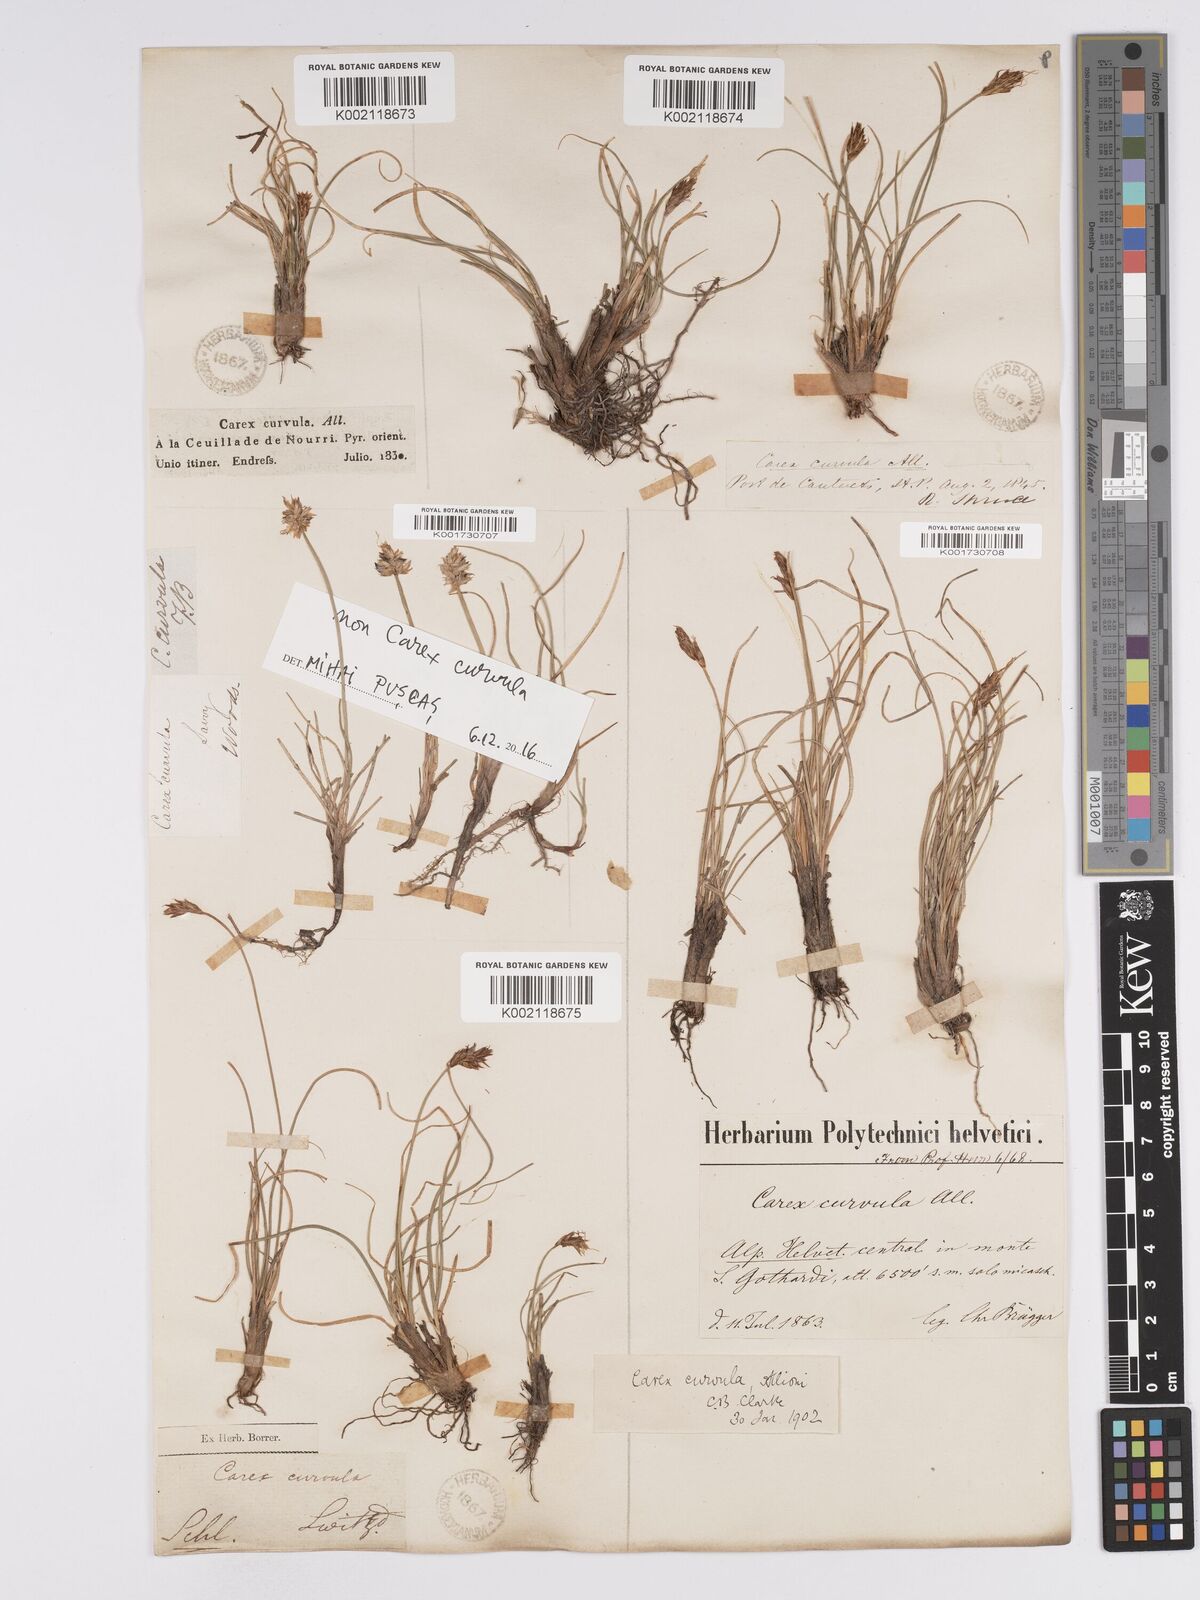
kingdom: Plantae
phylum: Tracheophyta
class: Liliopsida
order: Poales
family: Cyperaceae
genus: Carex
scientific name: Carex curvula
